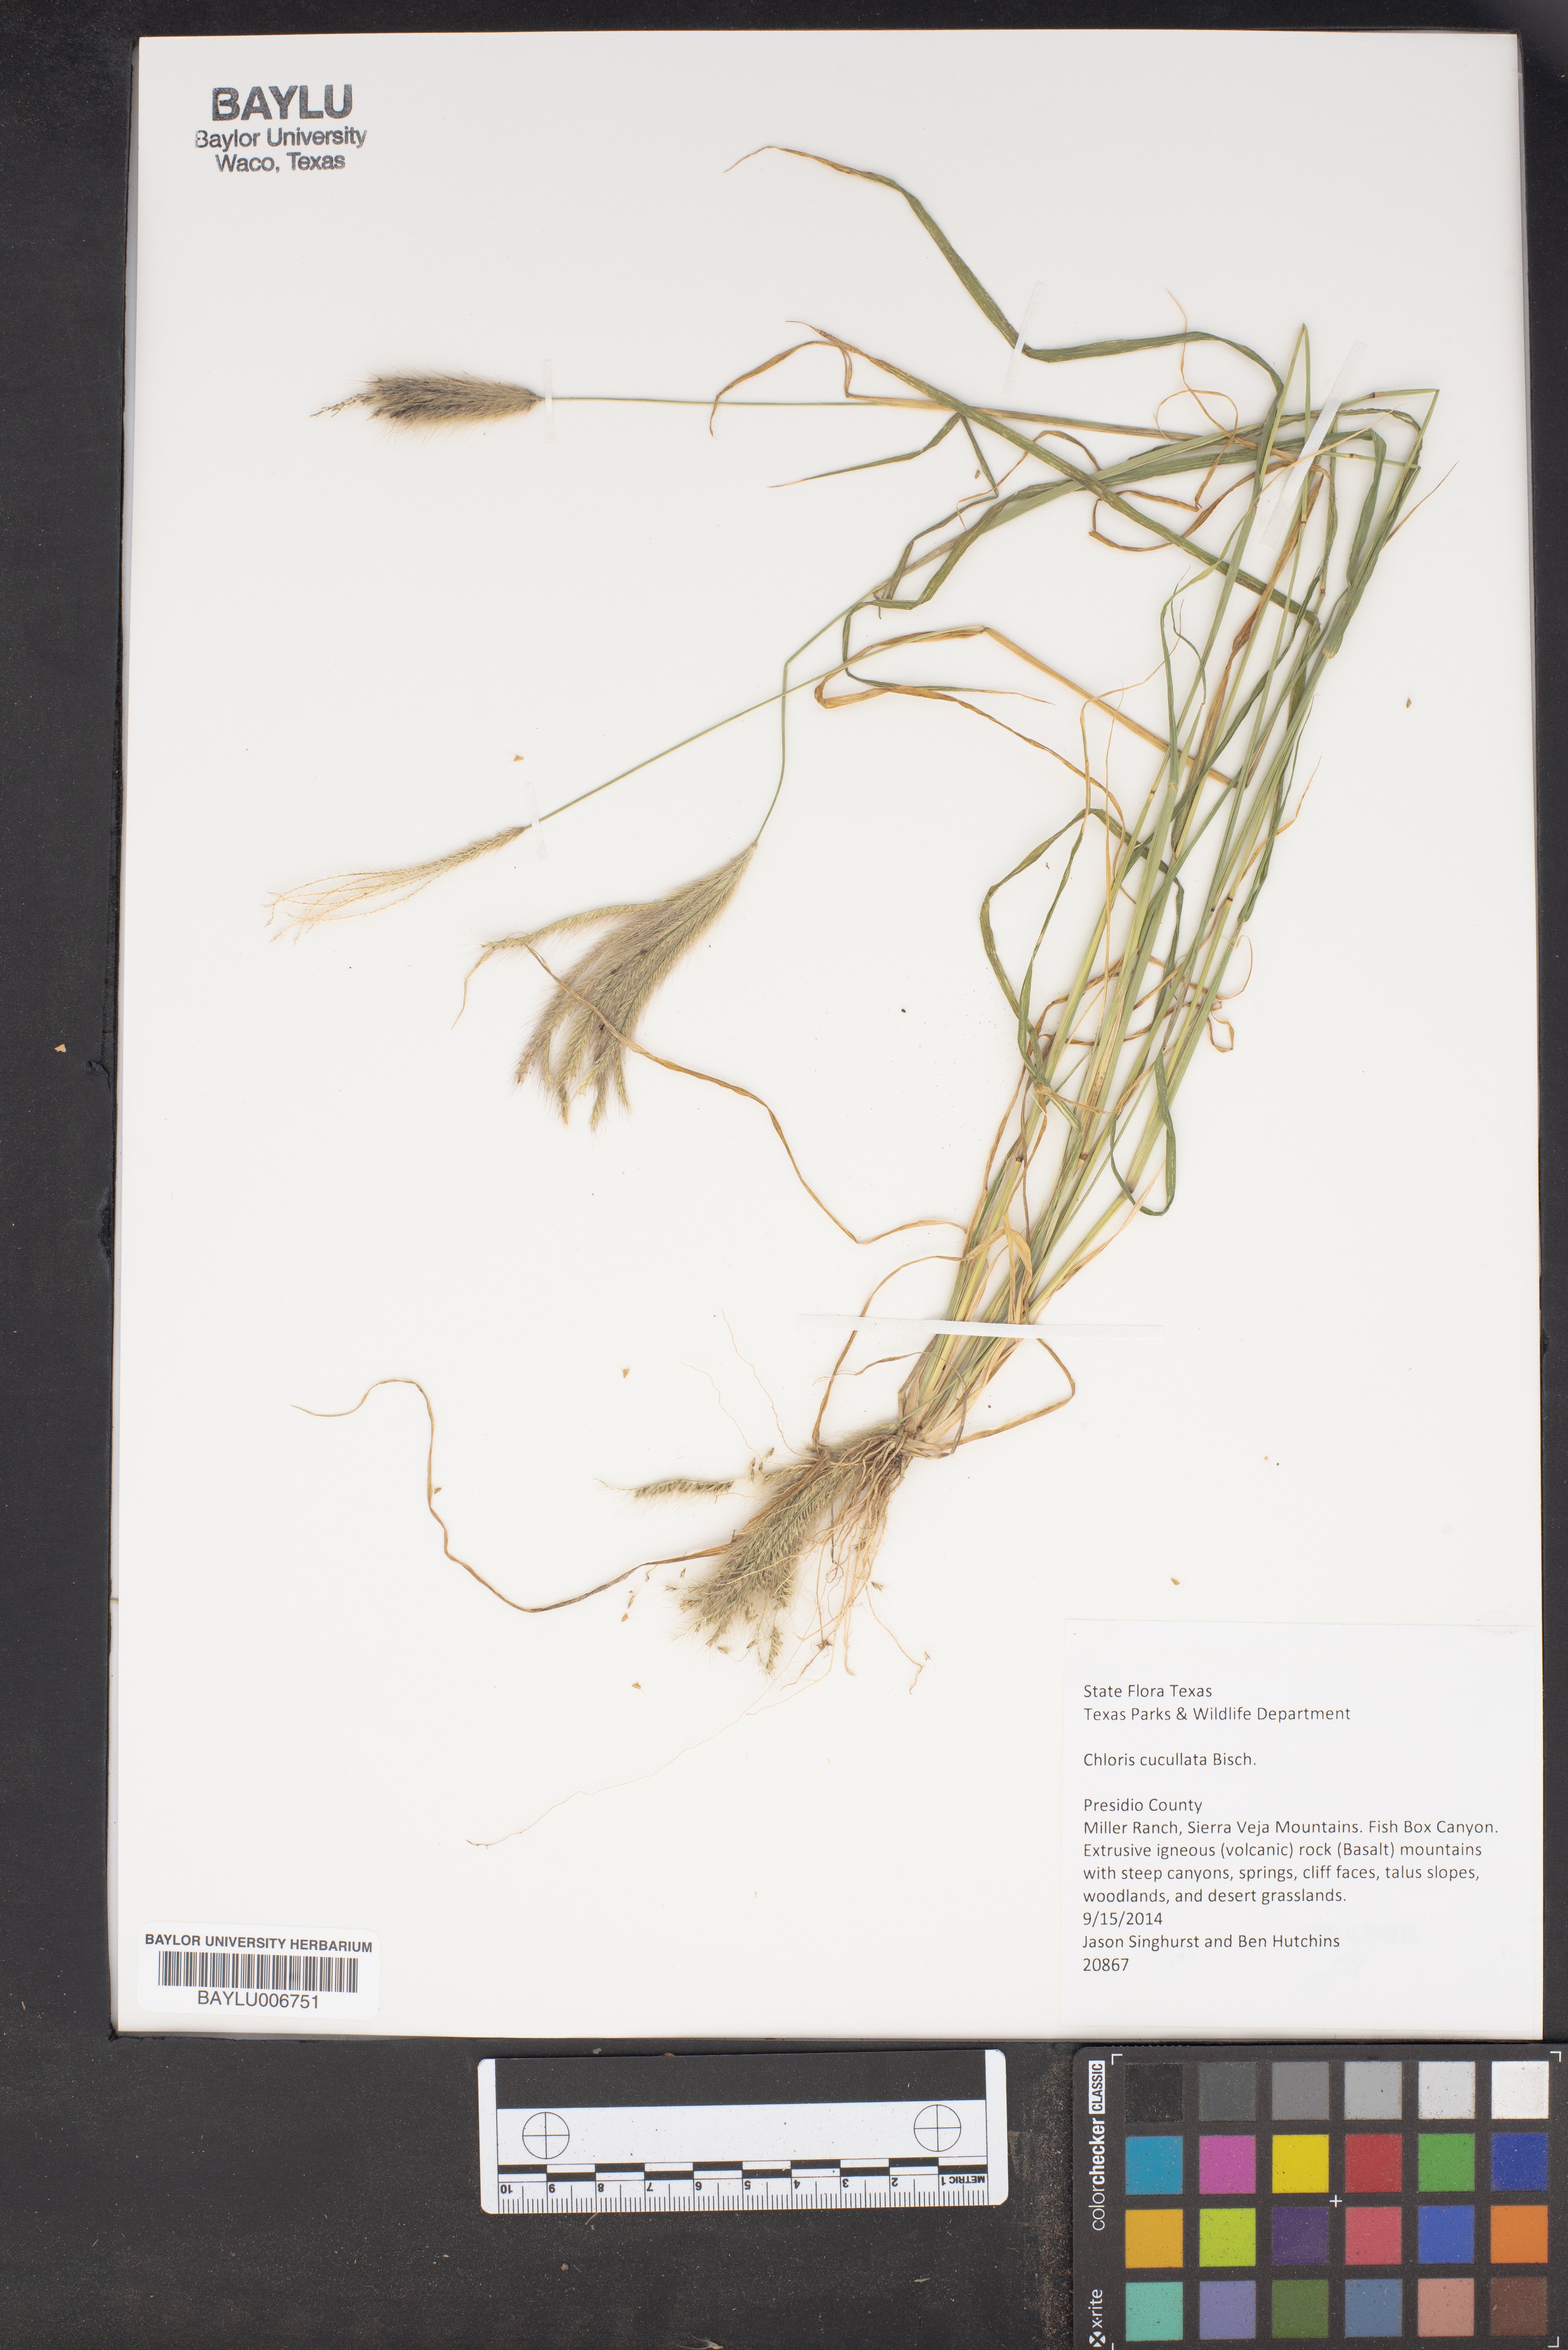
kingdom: Plantae
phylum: Tracheophyta
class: Liliopsida
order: Poales
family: Poaceae
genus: Chloris
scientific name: Chloris cucullata
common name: Hooded windmill grass
